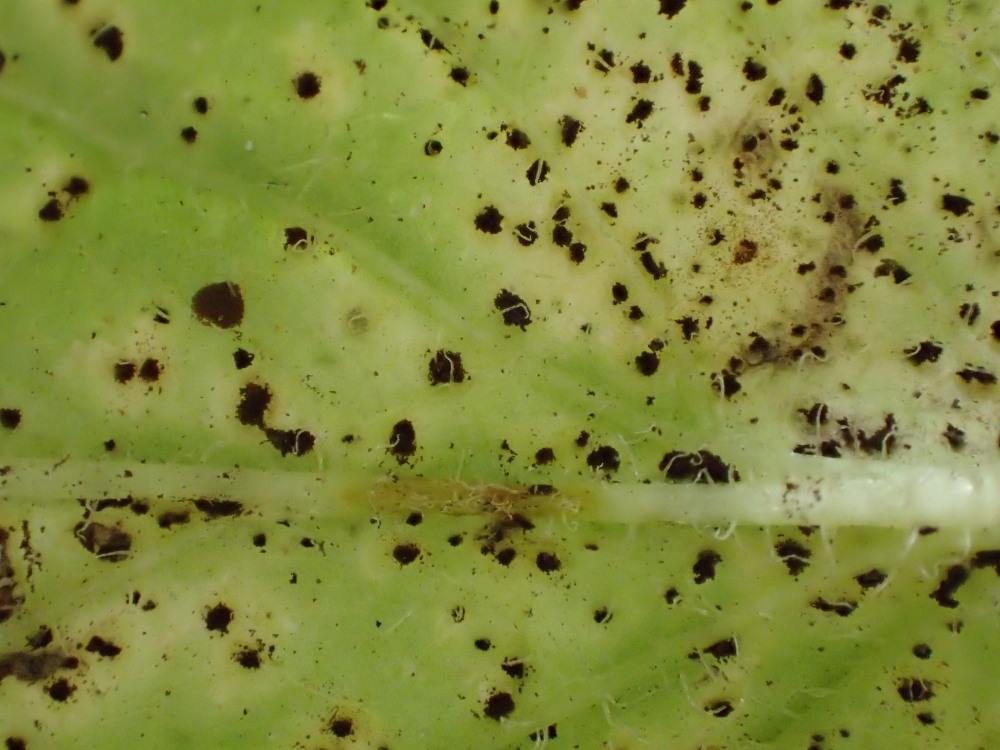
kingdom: Fungi
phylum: Basidiomycota
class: Pucciniomycetes
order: Pucciniales
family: Pucciniaceae
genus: Puccinia
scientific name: Puccinia lapsanae
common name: Nipplewort rust
